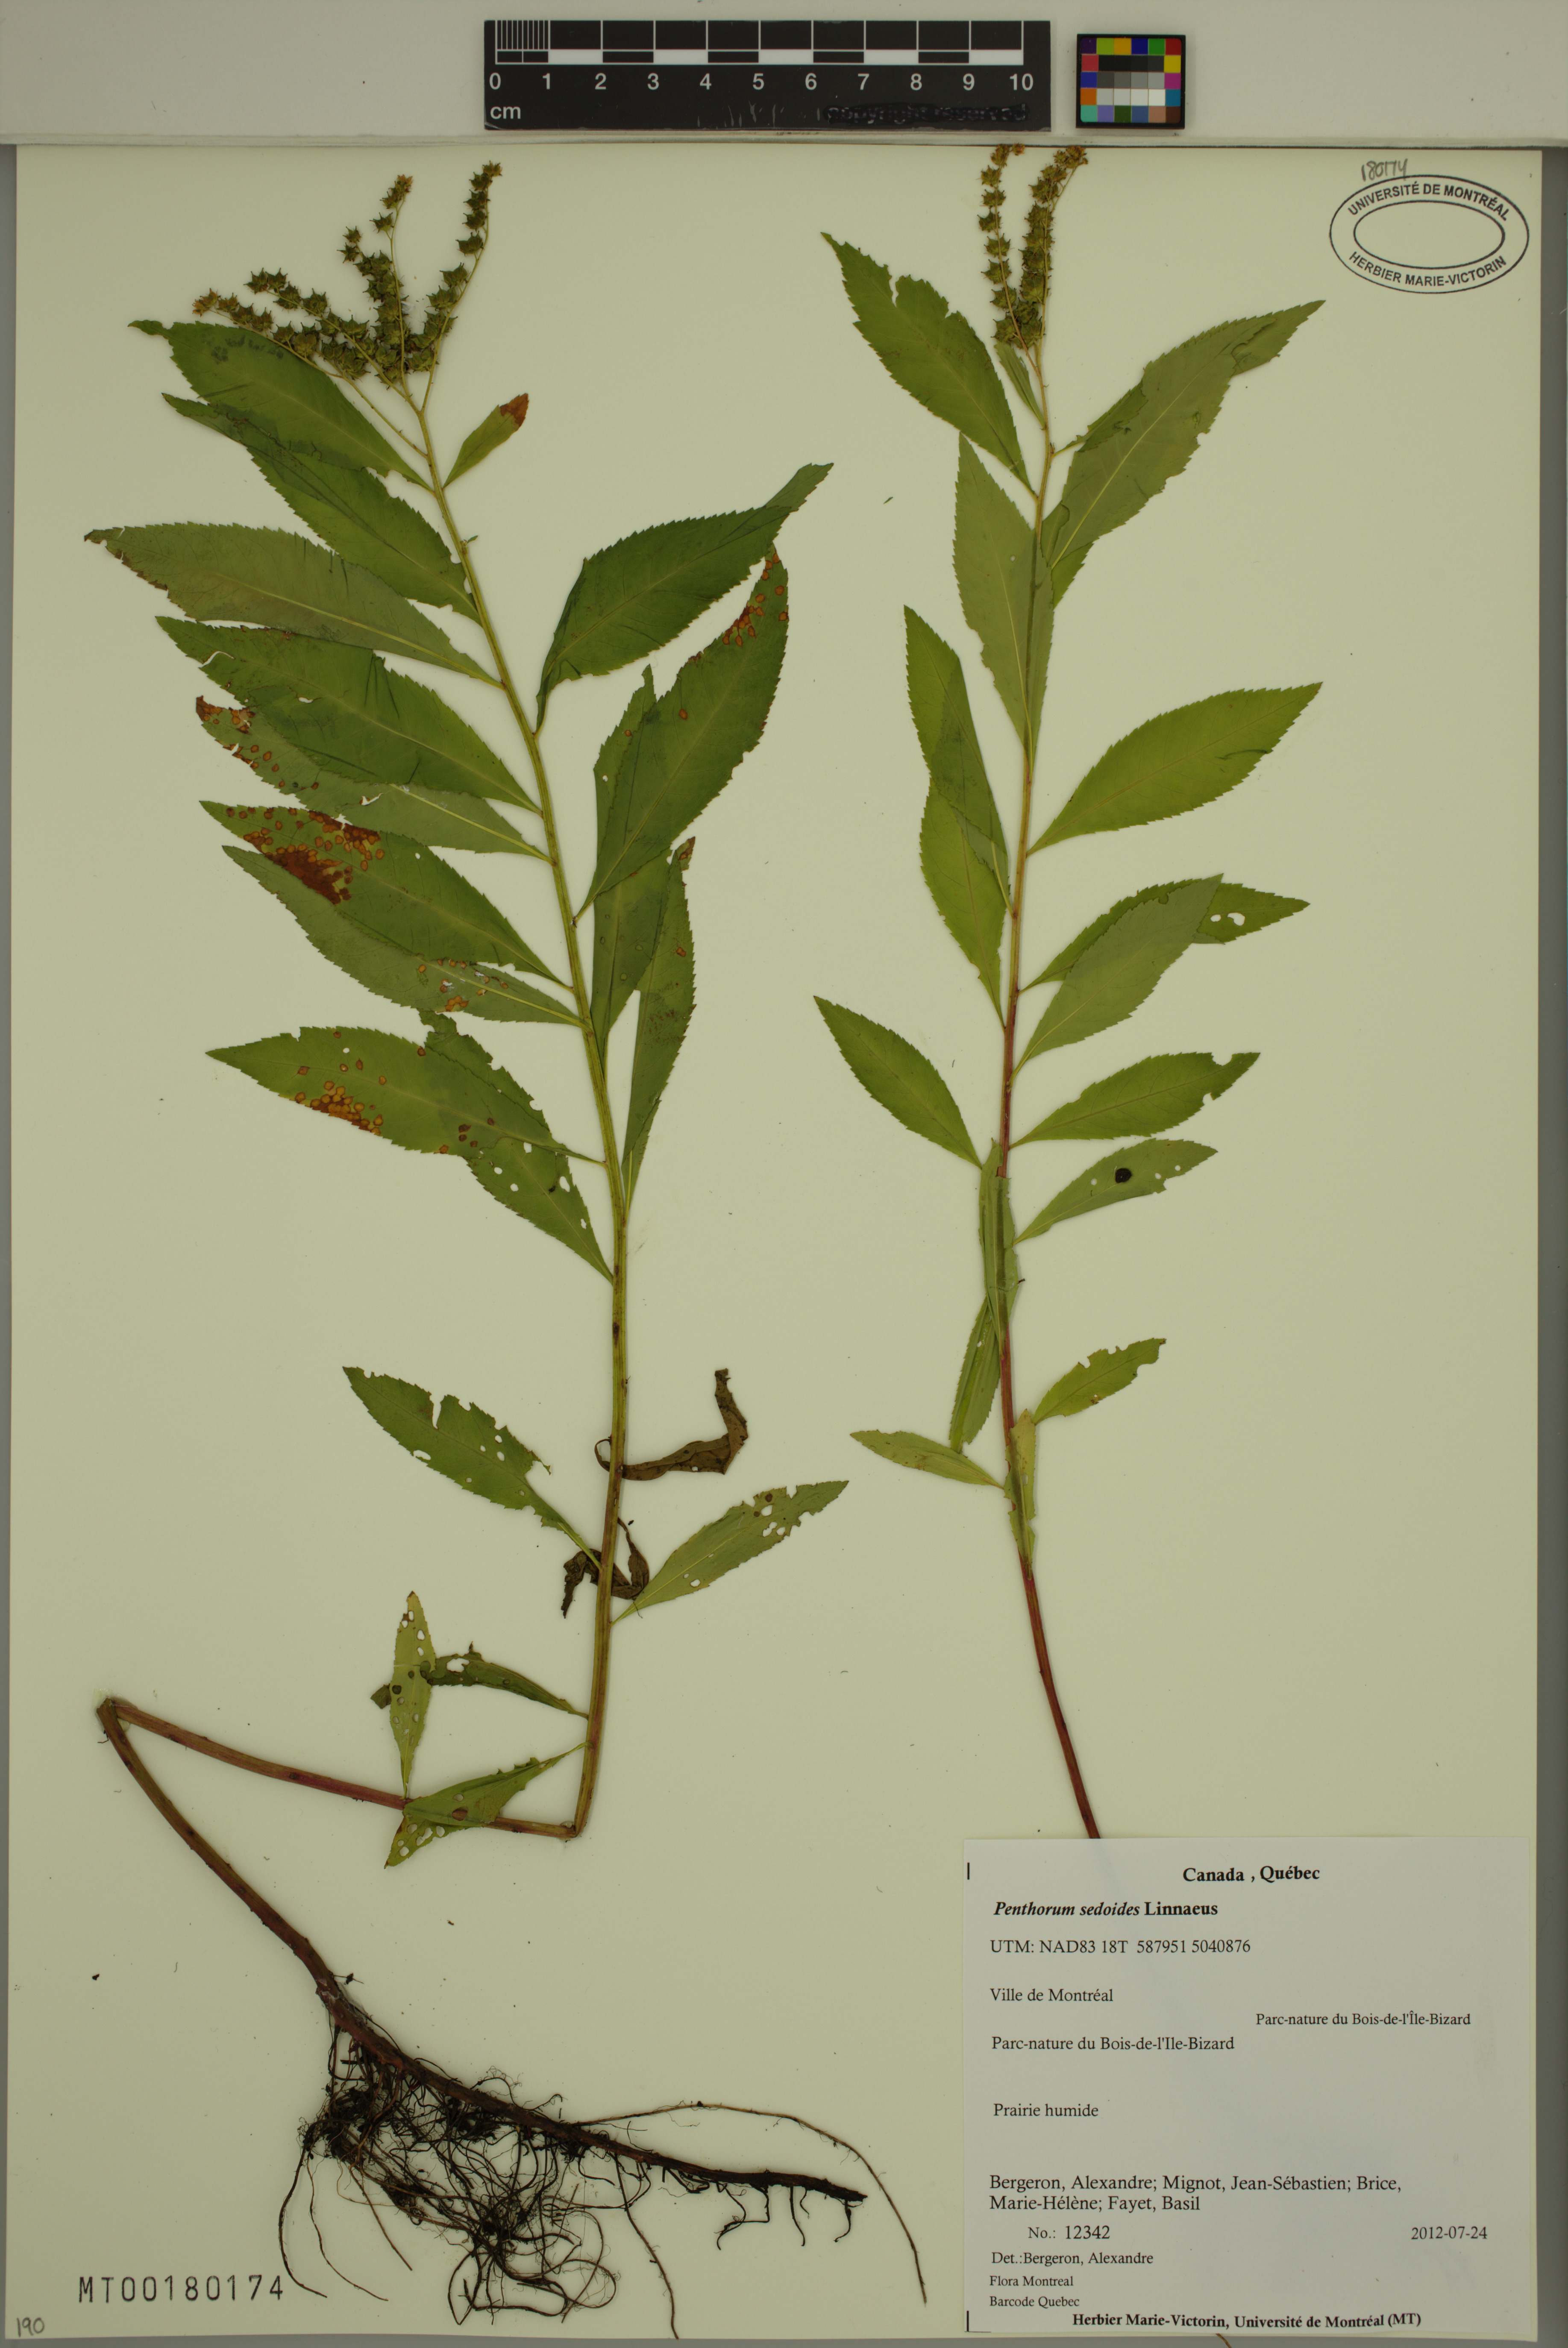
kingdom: Plantae
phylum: Tracheophyta
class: Magnoliopsida
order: Saxifragales
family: Penthoraceae
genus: Penthorum
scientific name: Penthorum sedoides
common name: Ditch stonecrop
